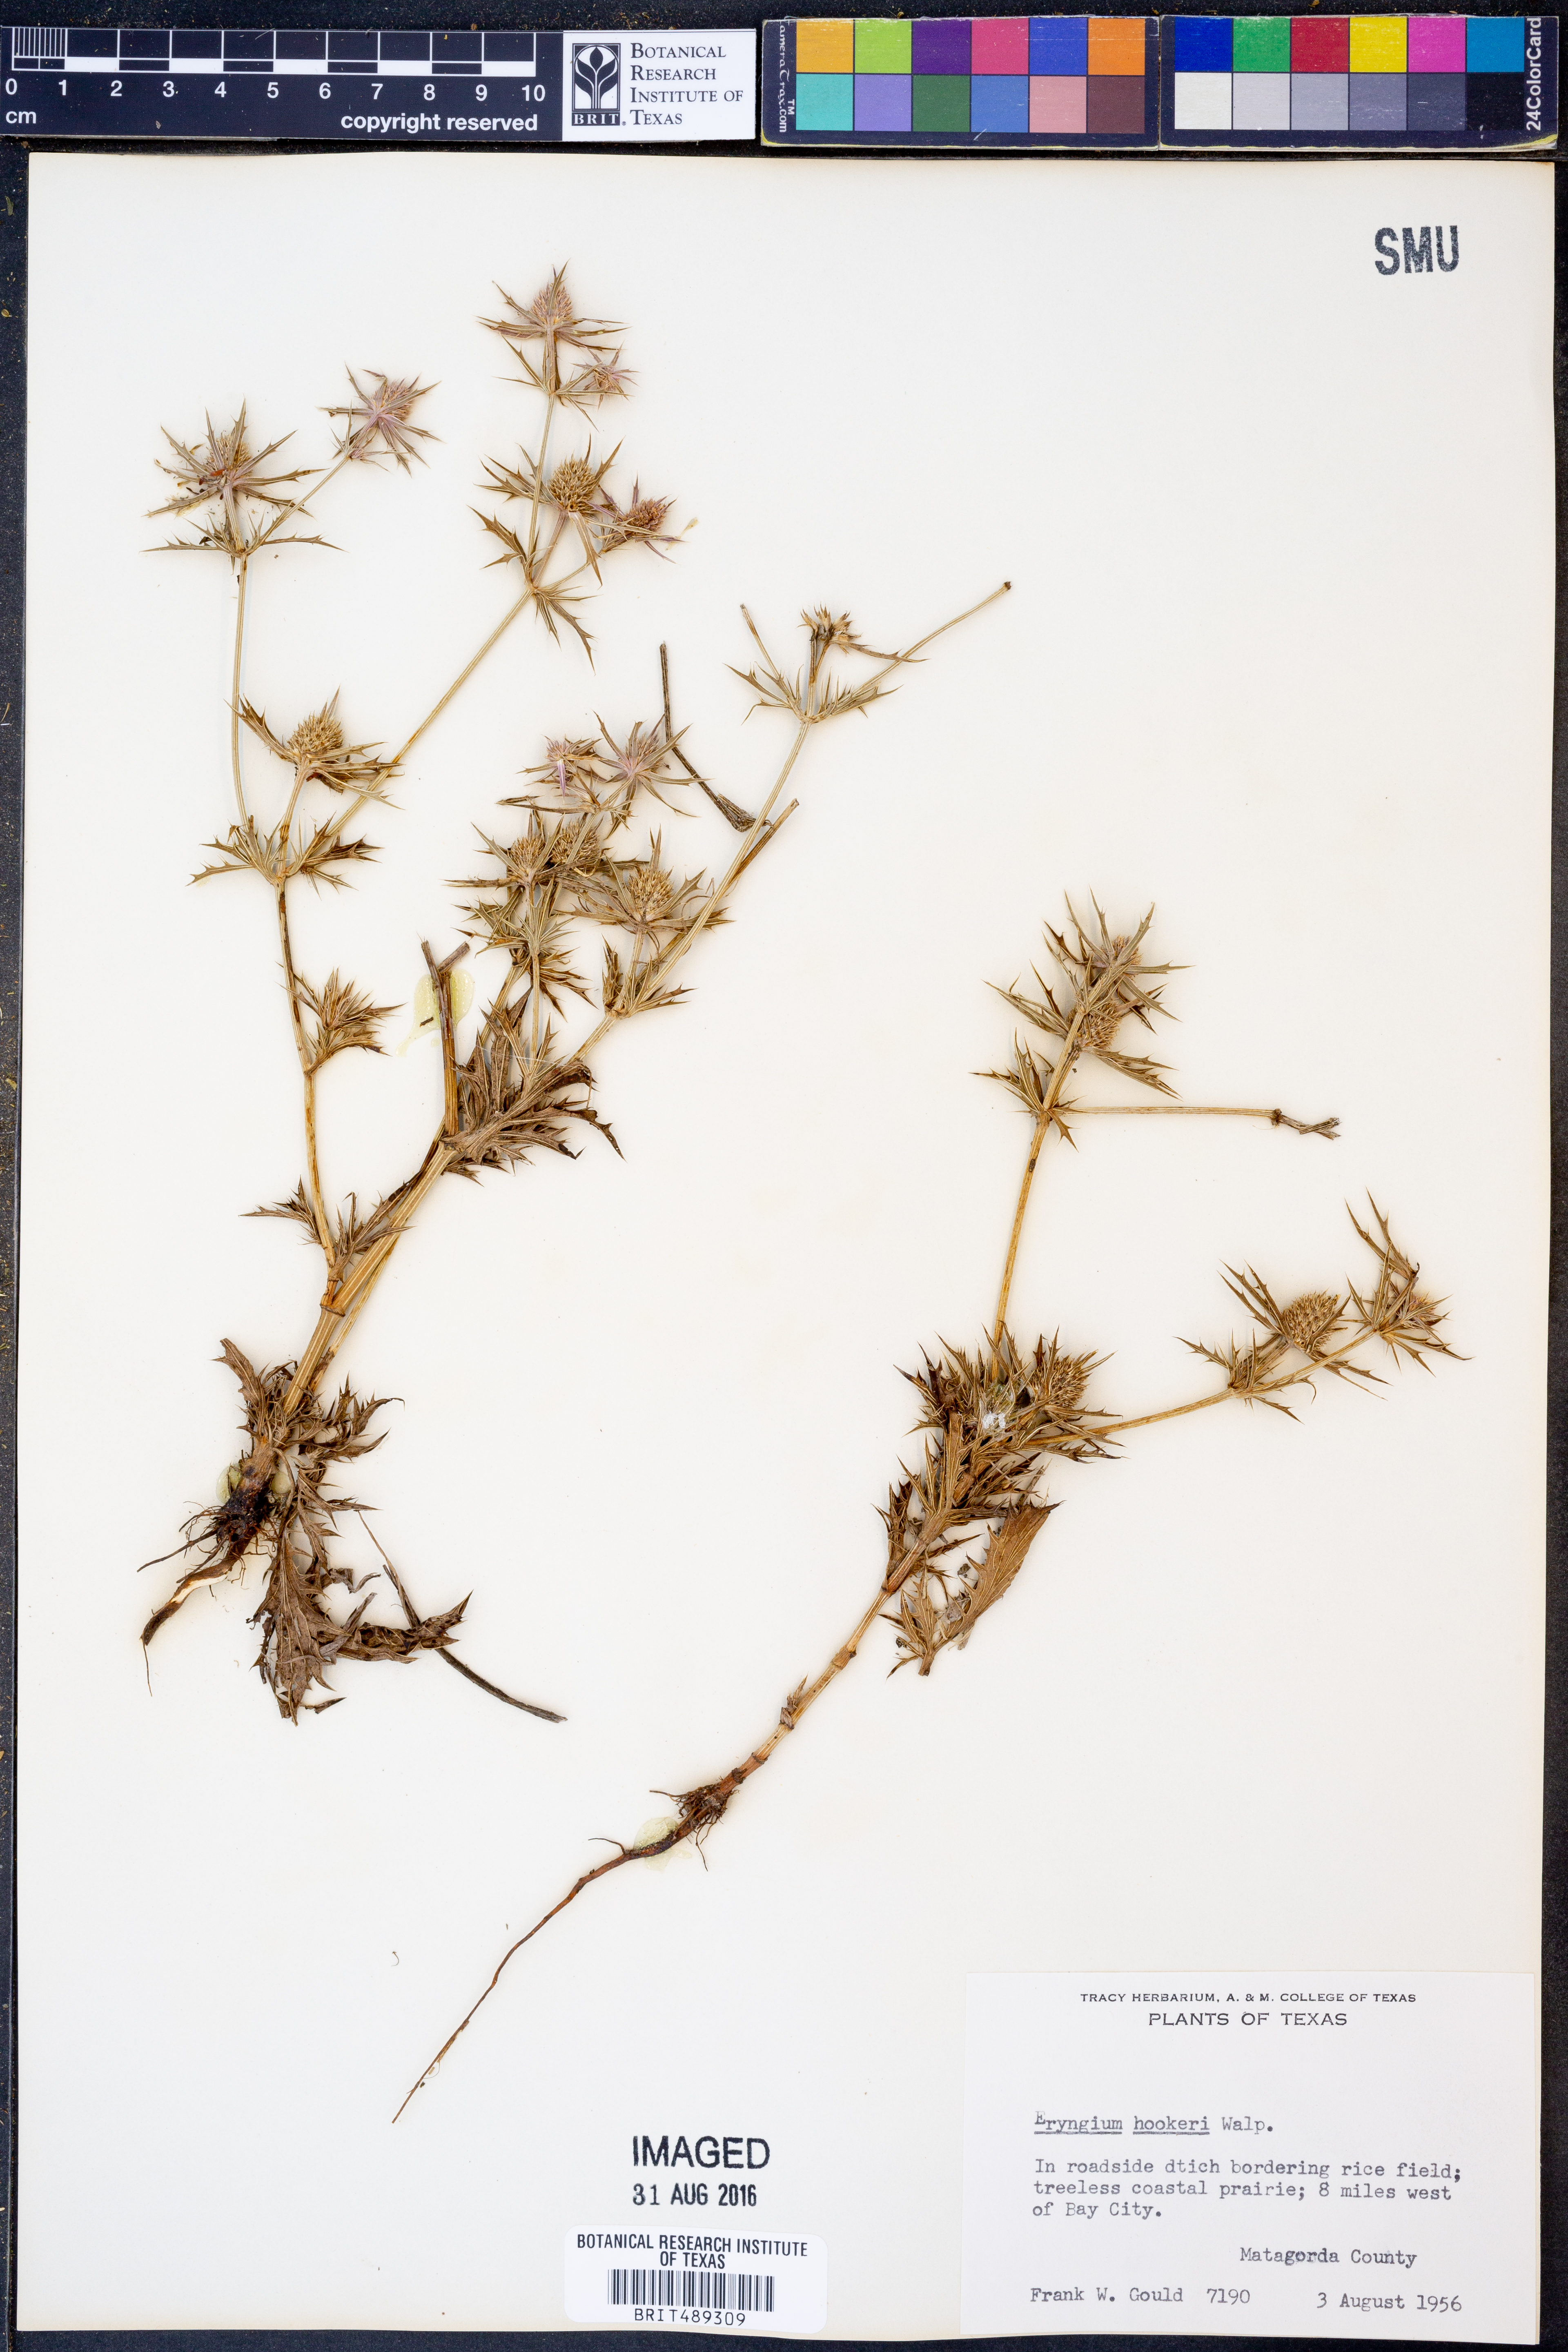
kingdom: Plantae
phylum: Tracheophyta
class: Magnoliopsida
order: Apiales
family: Apiaceae
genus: Eryngium
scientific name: Eryngium hookeri
